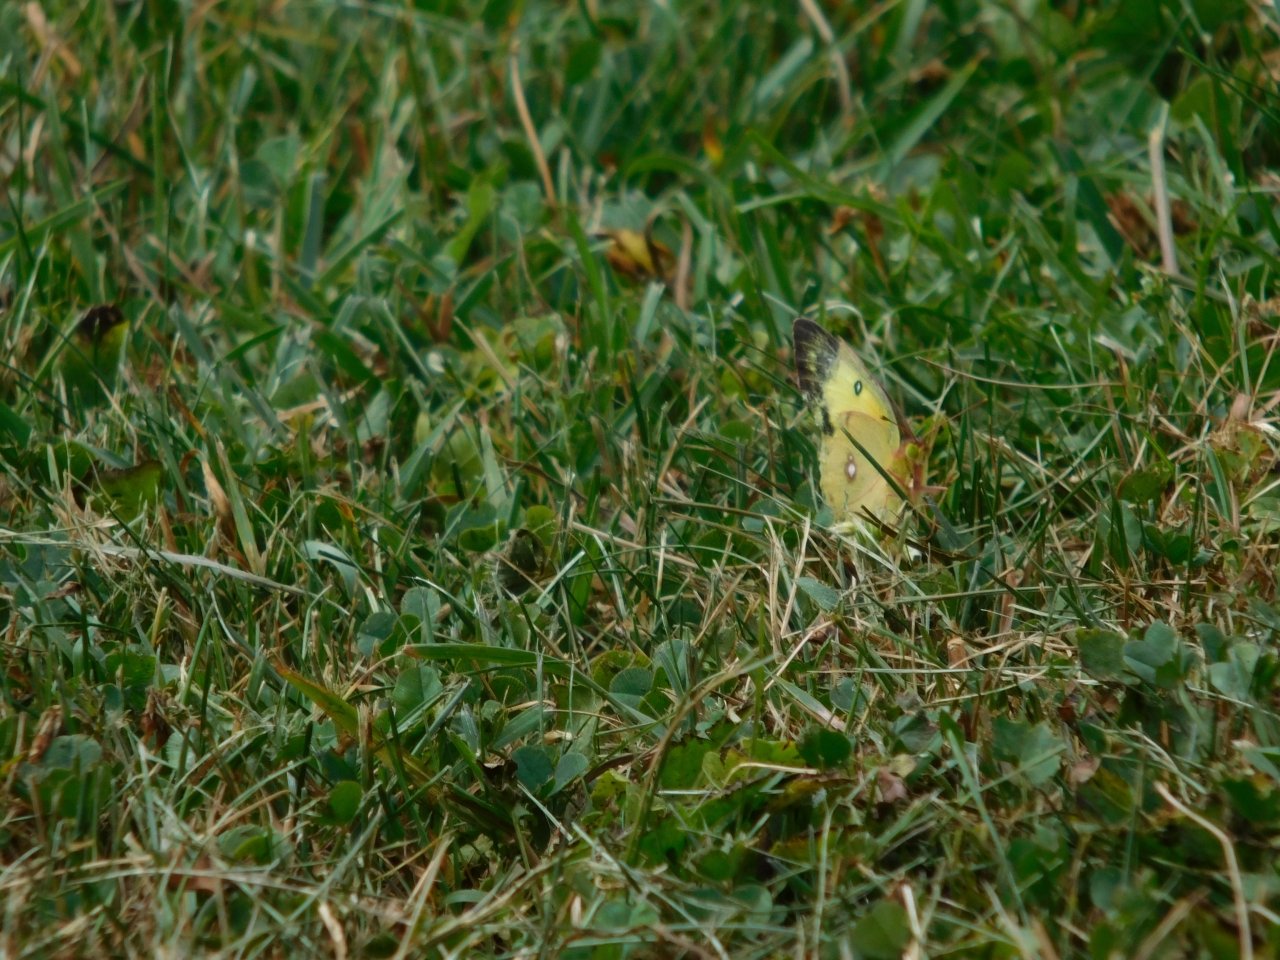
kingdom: Animalia
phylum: Arthropoda
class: Insecta
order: Lepidoptera
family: Pieridae
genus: Colias
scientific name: Colias philodice
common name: Clouded Sulphur
